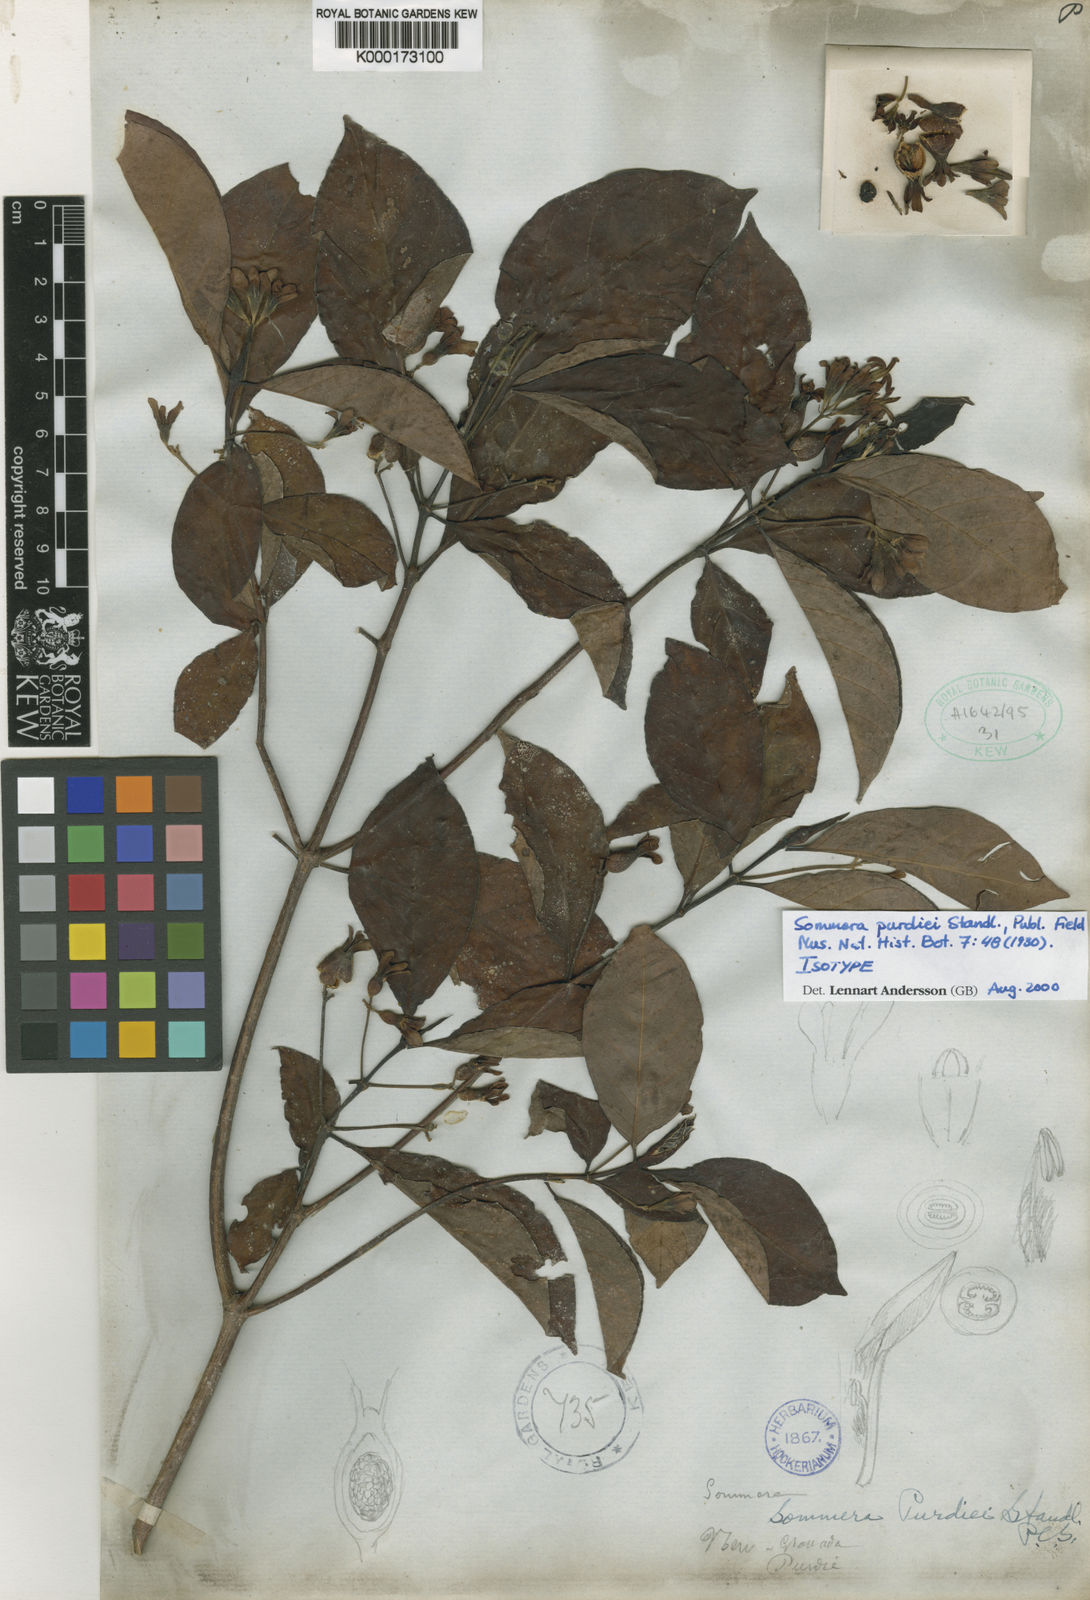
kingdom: Plantae
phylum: Tracheophyta
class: Magnoliopsida
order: Gentianales
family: Rubiaceae
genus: Sommera
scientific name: Sommera purdiei
